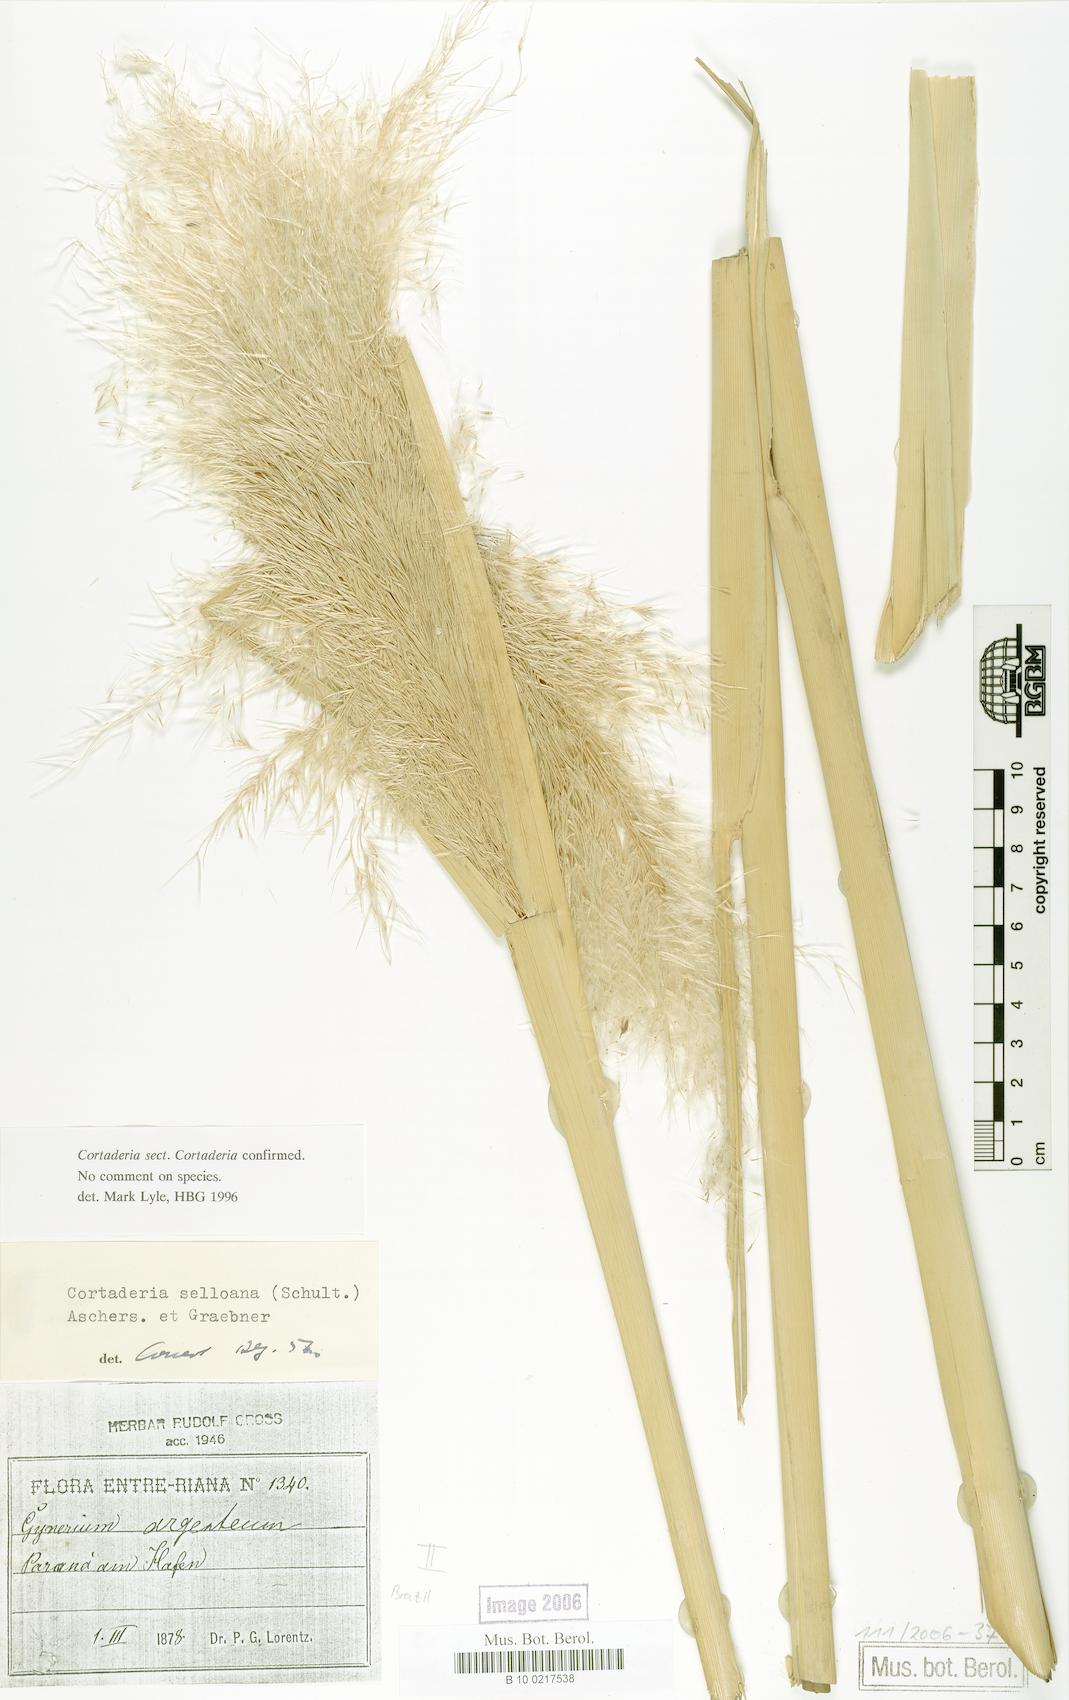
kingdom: Plantae
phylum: Tracheophyta
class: Liliopsida
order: Poales
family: Poaceae
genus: Cortaderia
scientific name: Cortaderia selloana
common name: Uruguayan pampas grass
